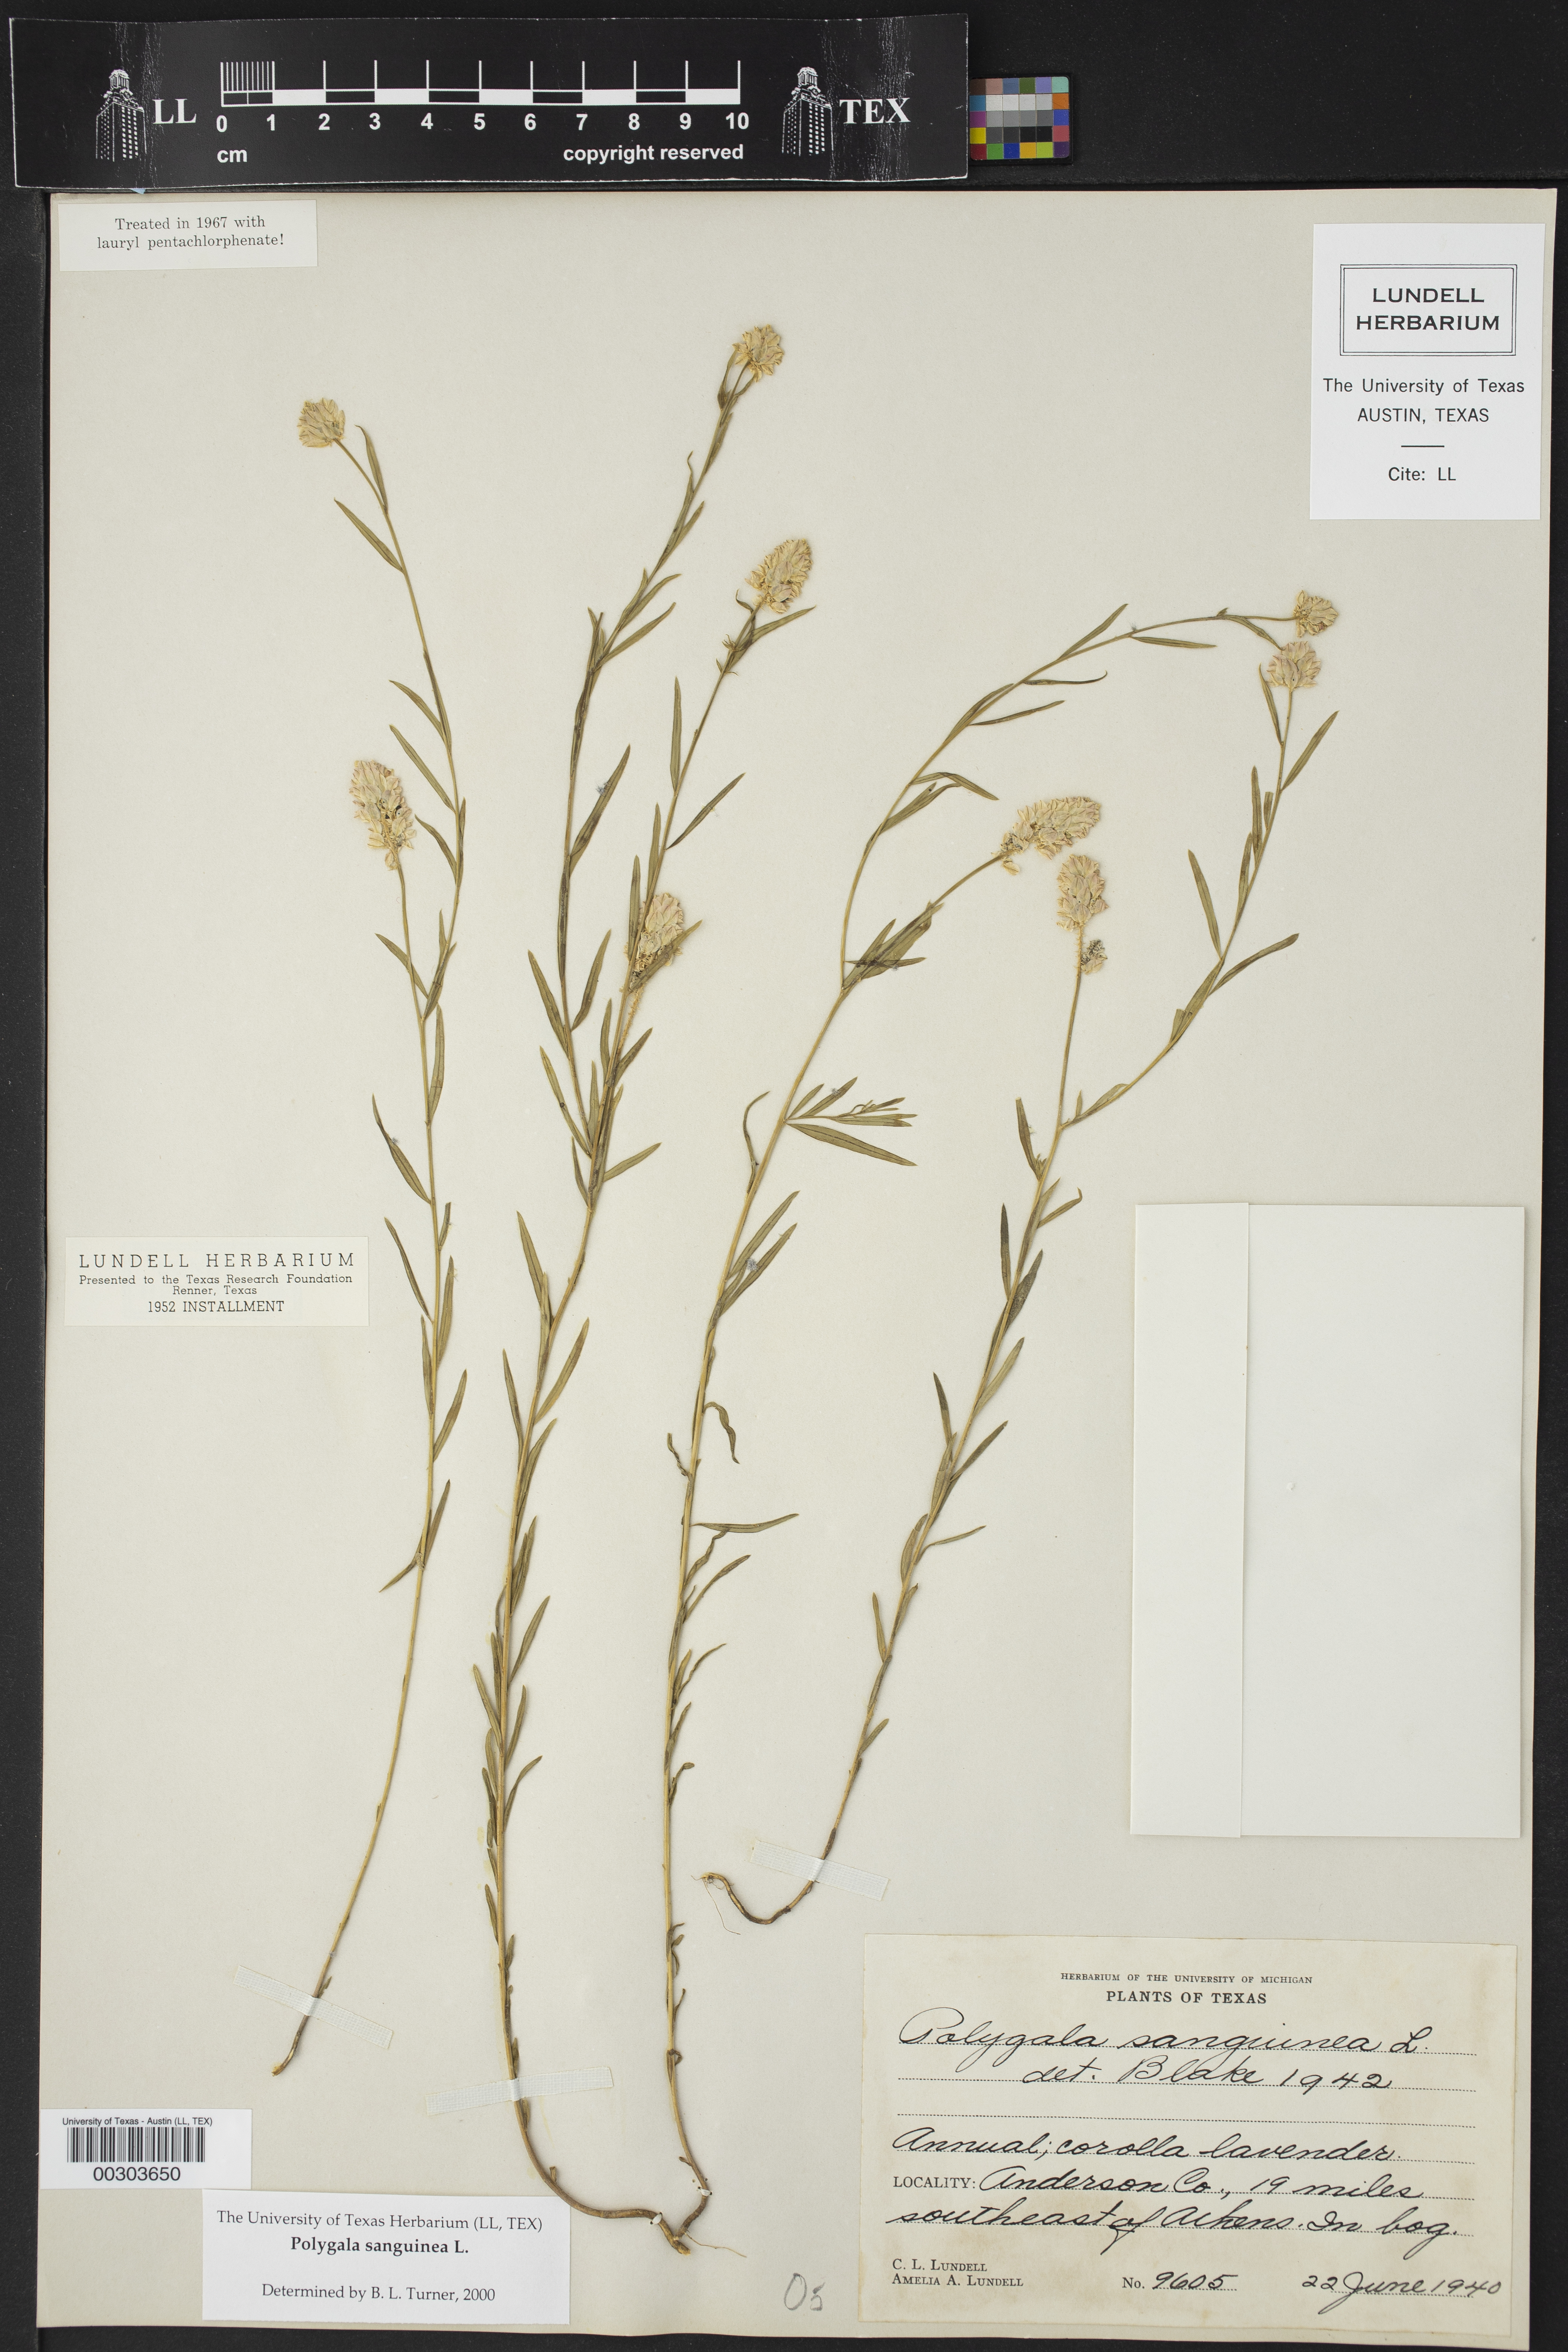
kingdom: Plantae
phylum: Tracheophyta
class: Magnoliopsida
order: Fabales
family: Polygalaceae
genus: Polygala
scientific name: Polygala sanguinea
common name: Blood milkwort
